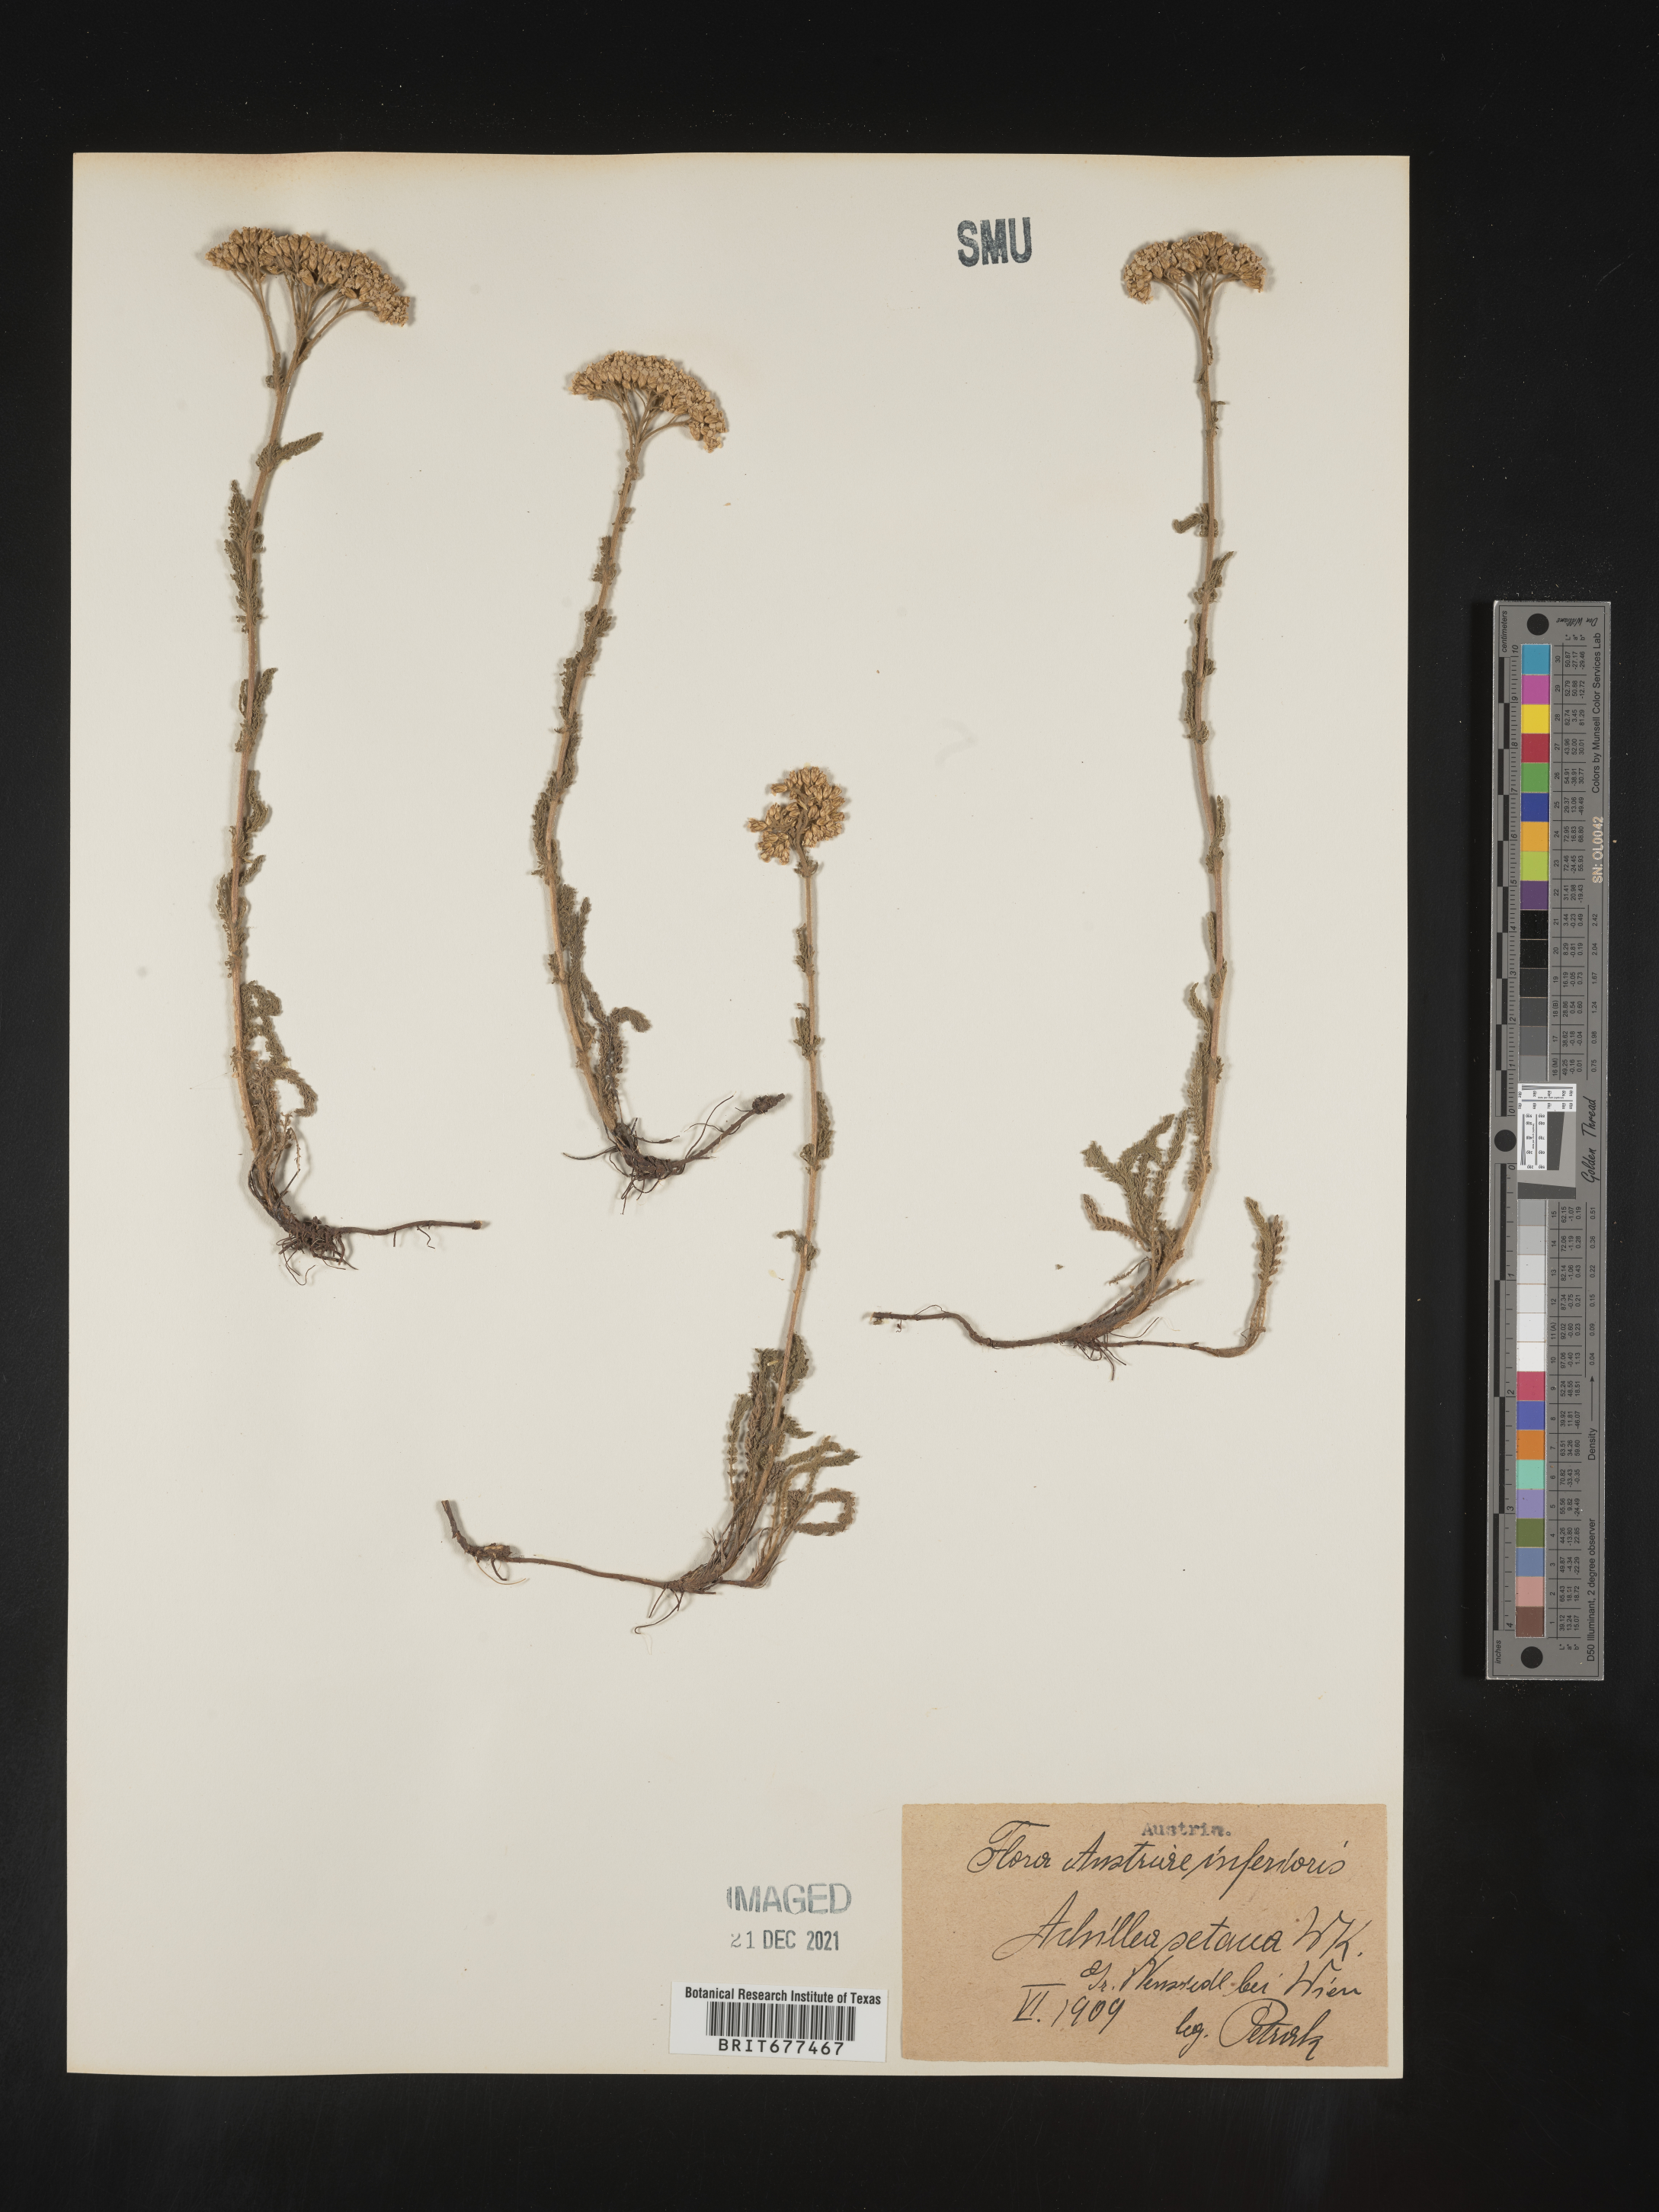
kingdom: Plantae
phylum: Tracheophyta
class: Magnoliopsida
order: Asterales
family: Asteraceae
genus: Achillea
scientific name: Achillea
